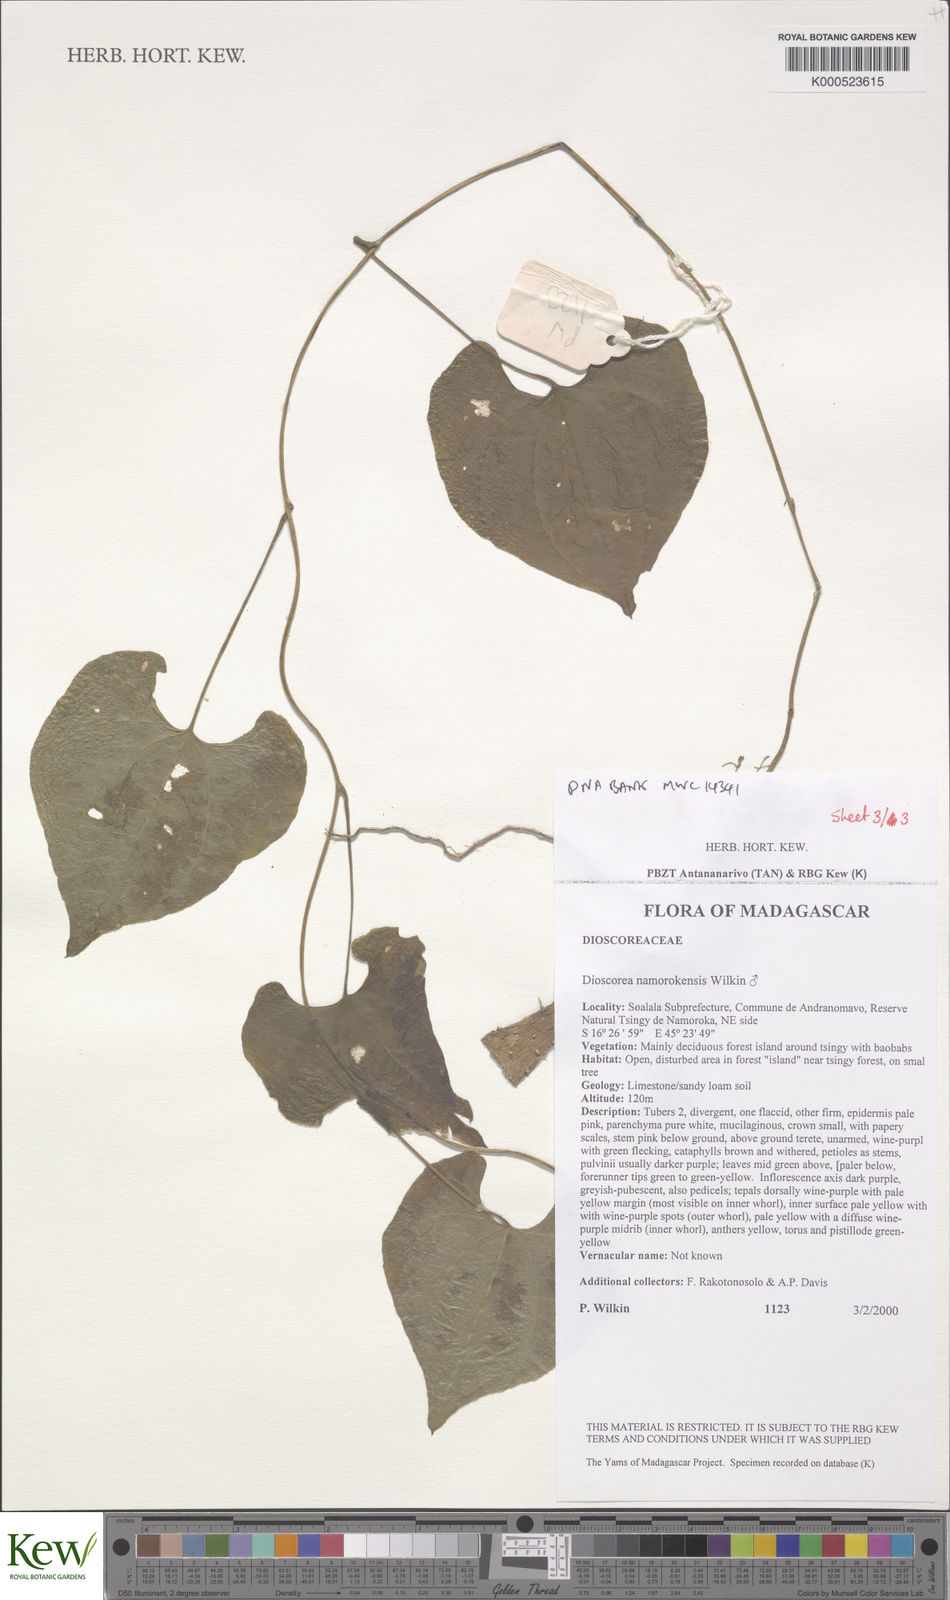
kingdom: Plantae
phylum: Tracheophyta
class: Liliopsida
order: Dioscoreales
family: Dioscoreaceae
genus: Dioscorea
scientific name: Dioscorea namorokensis
